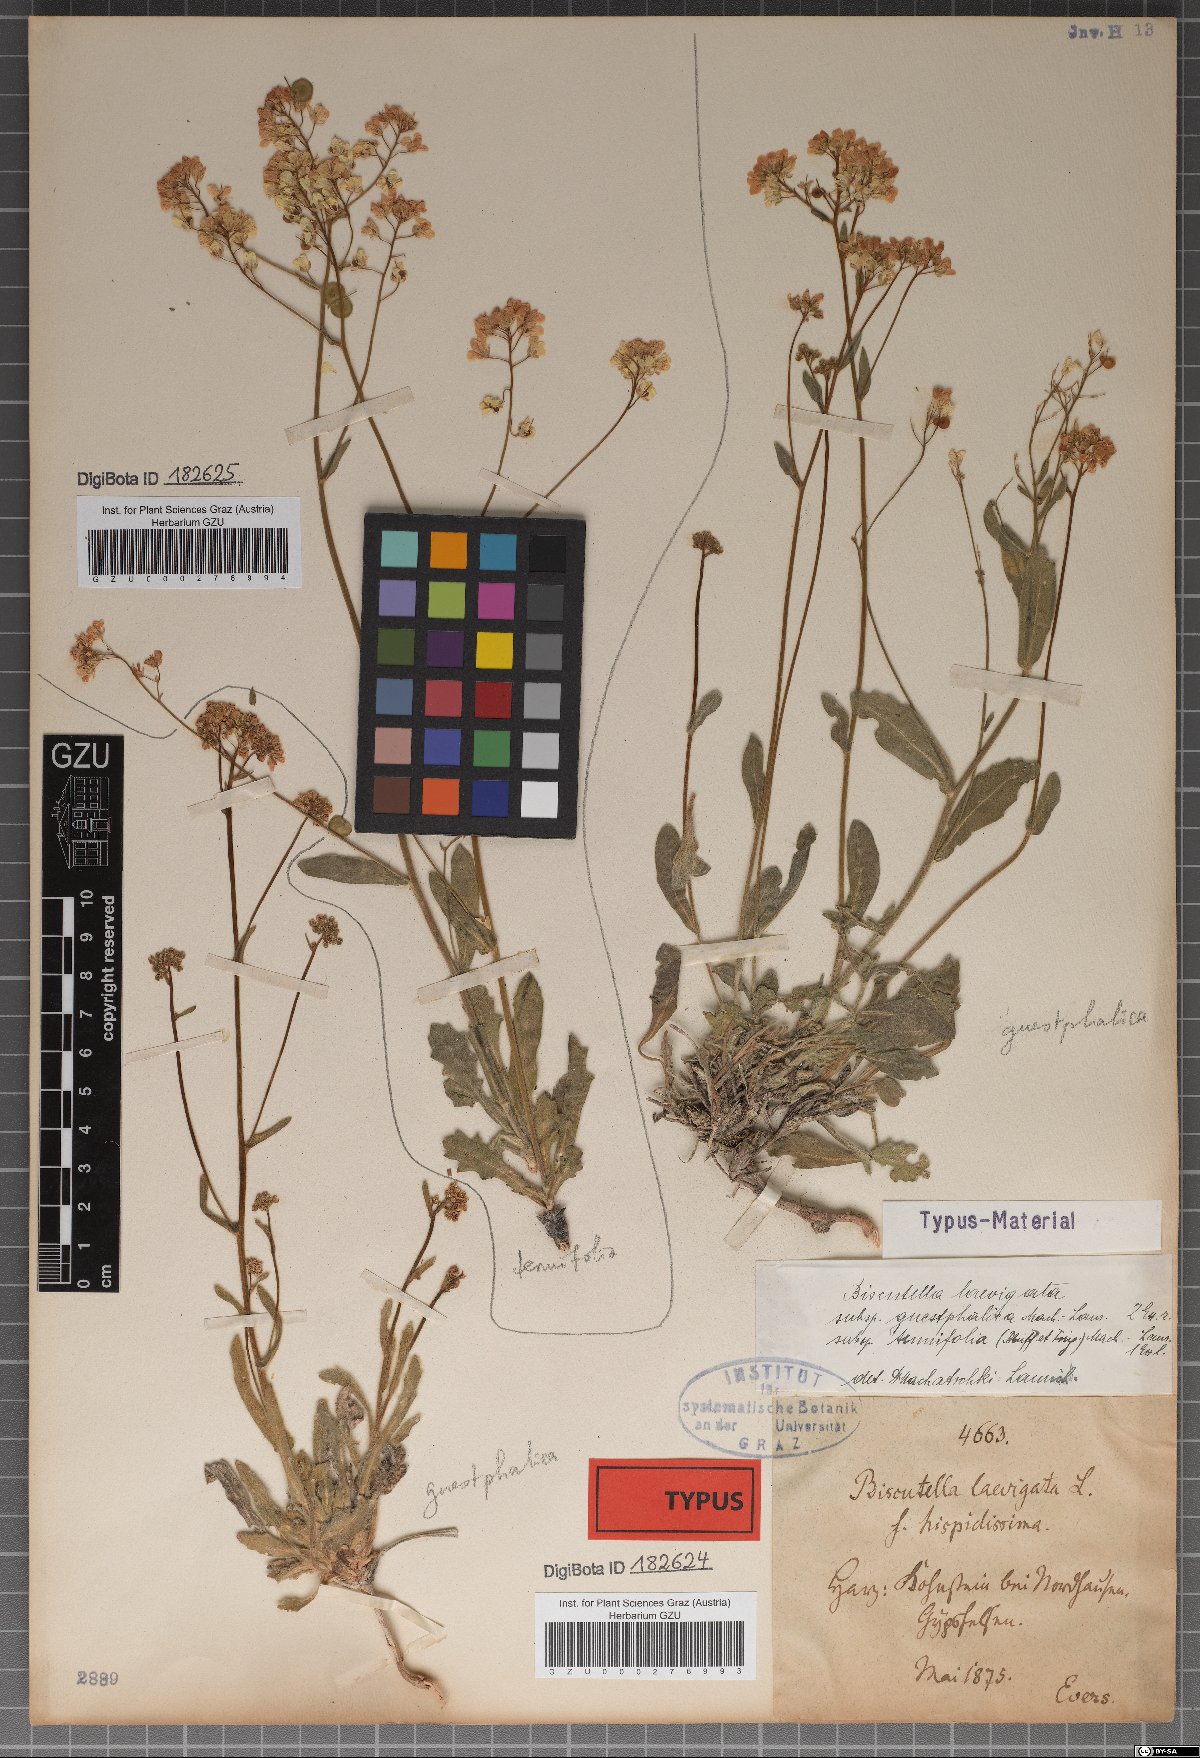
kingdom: Plantae
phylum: Tracheophyta
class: Magnoliopsida
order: Brassicales
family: Brassicaceae
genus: Biscutella
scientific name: Biscutella laevigata
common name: Buckler mustard
